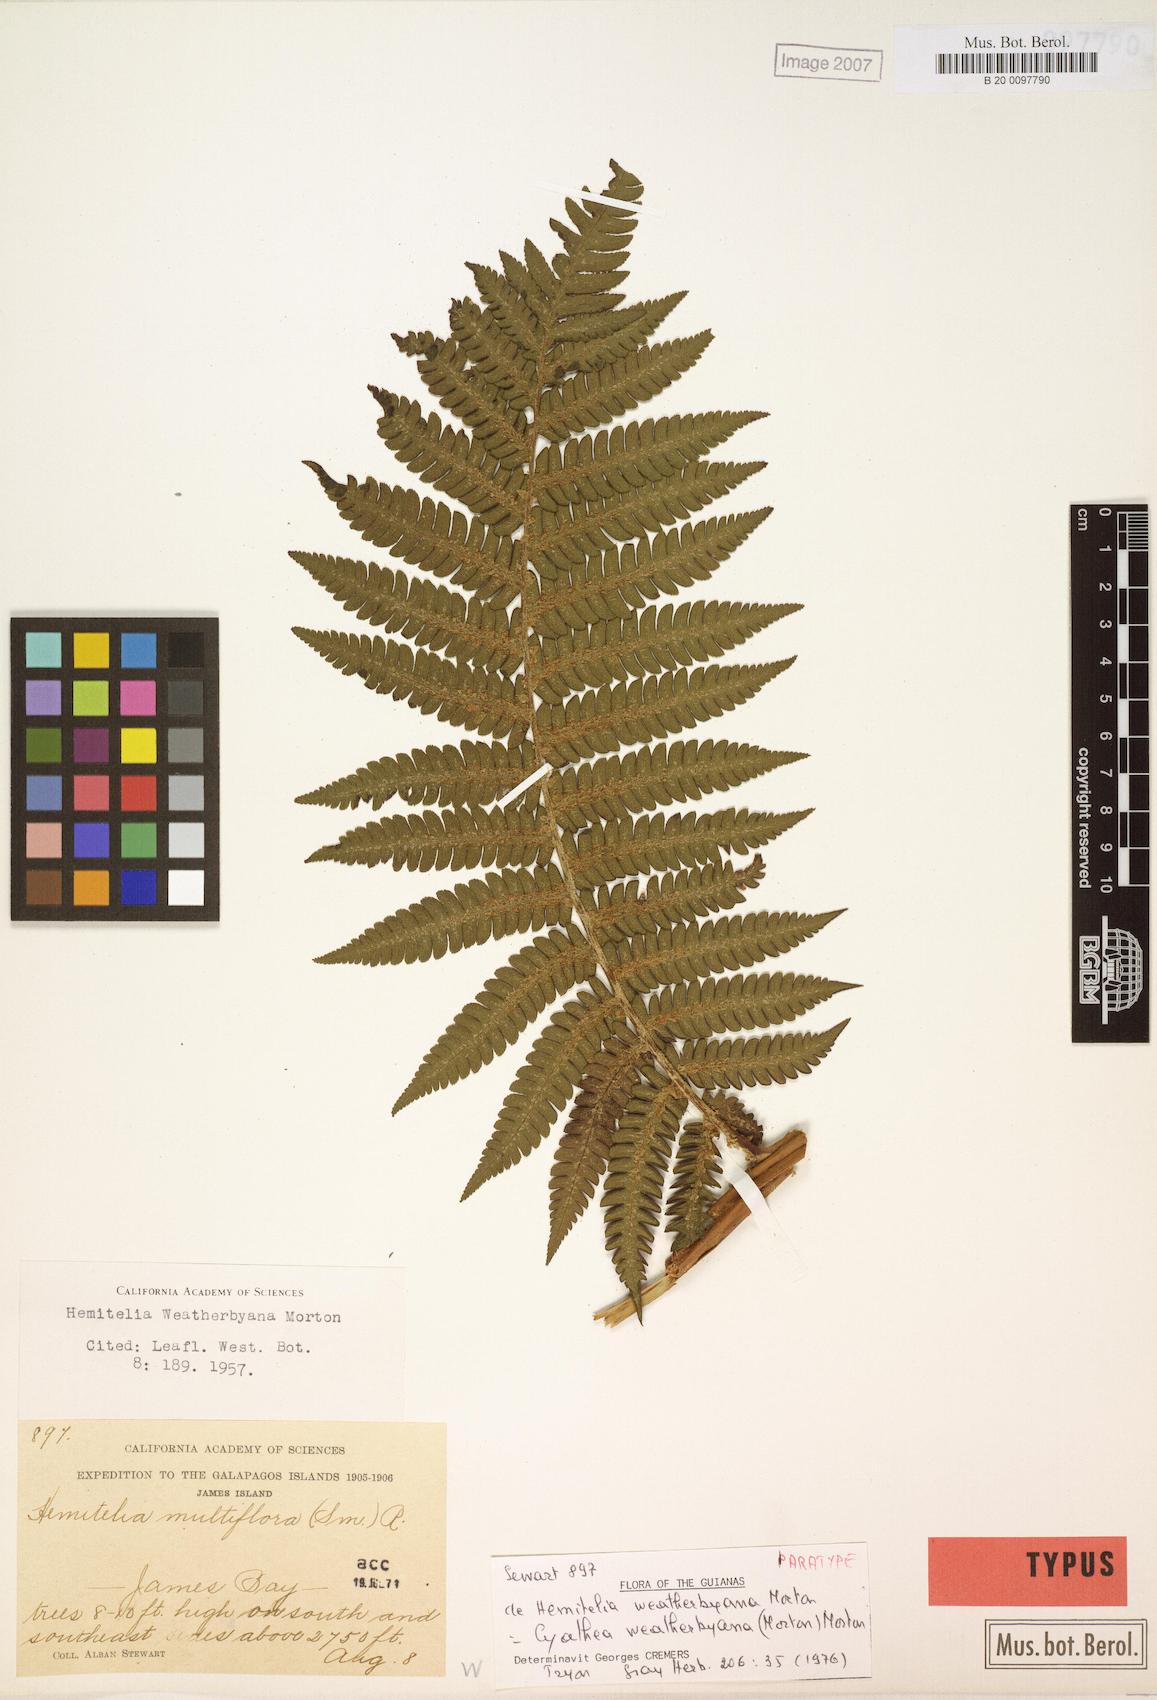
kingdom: Plantae
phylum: Tracheophyta
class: Polypodiopsida
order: Cyatheales
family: Cyatheaceae
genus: Cyathea
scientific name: Cyathea weatherbyana
